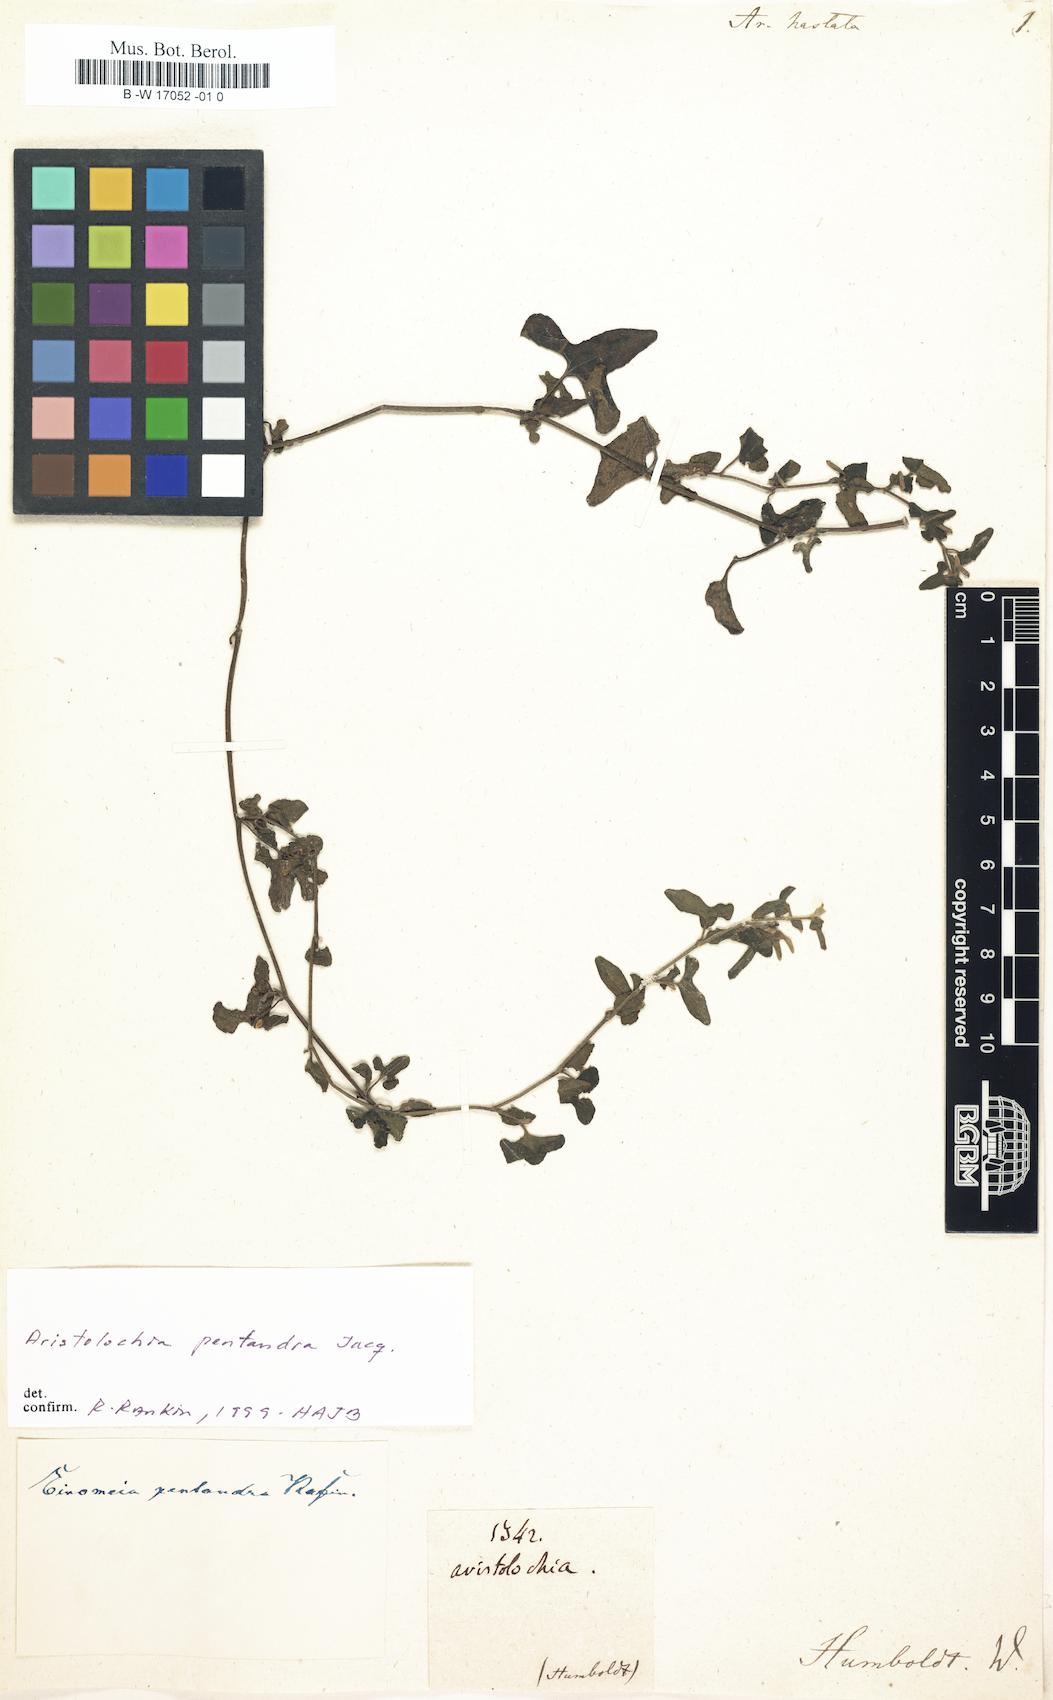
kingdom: Plantae
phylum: Tracheophyta
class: Magnoliopsida
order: Piperales
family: Aristolochiaceae
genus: Aristolochia
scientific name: Aristolochia pentandra
